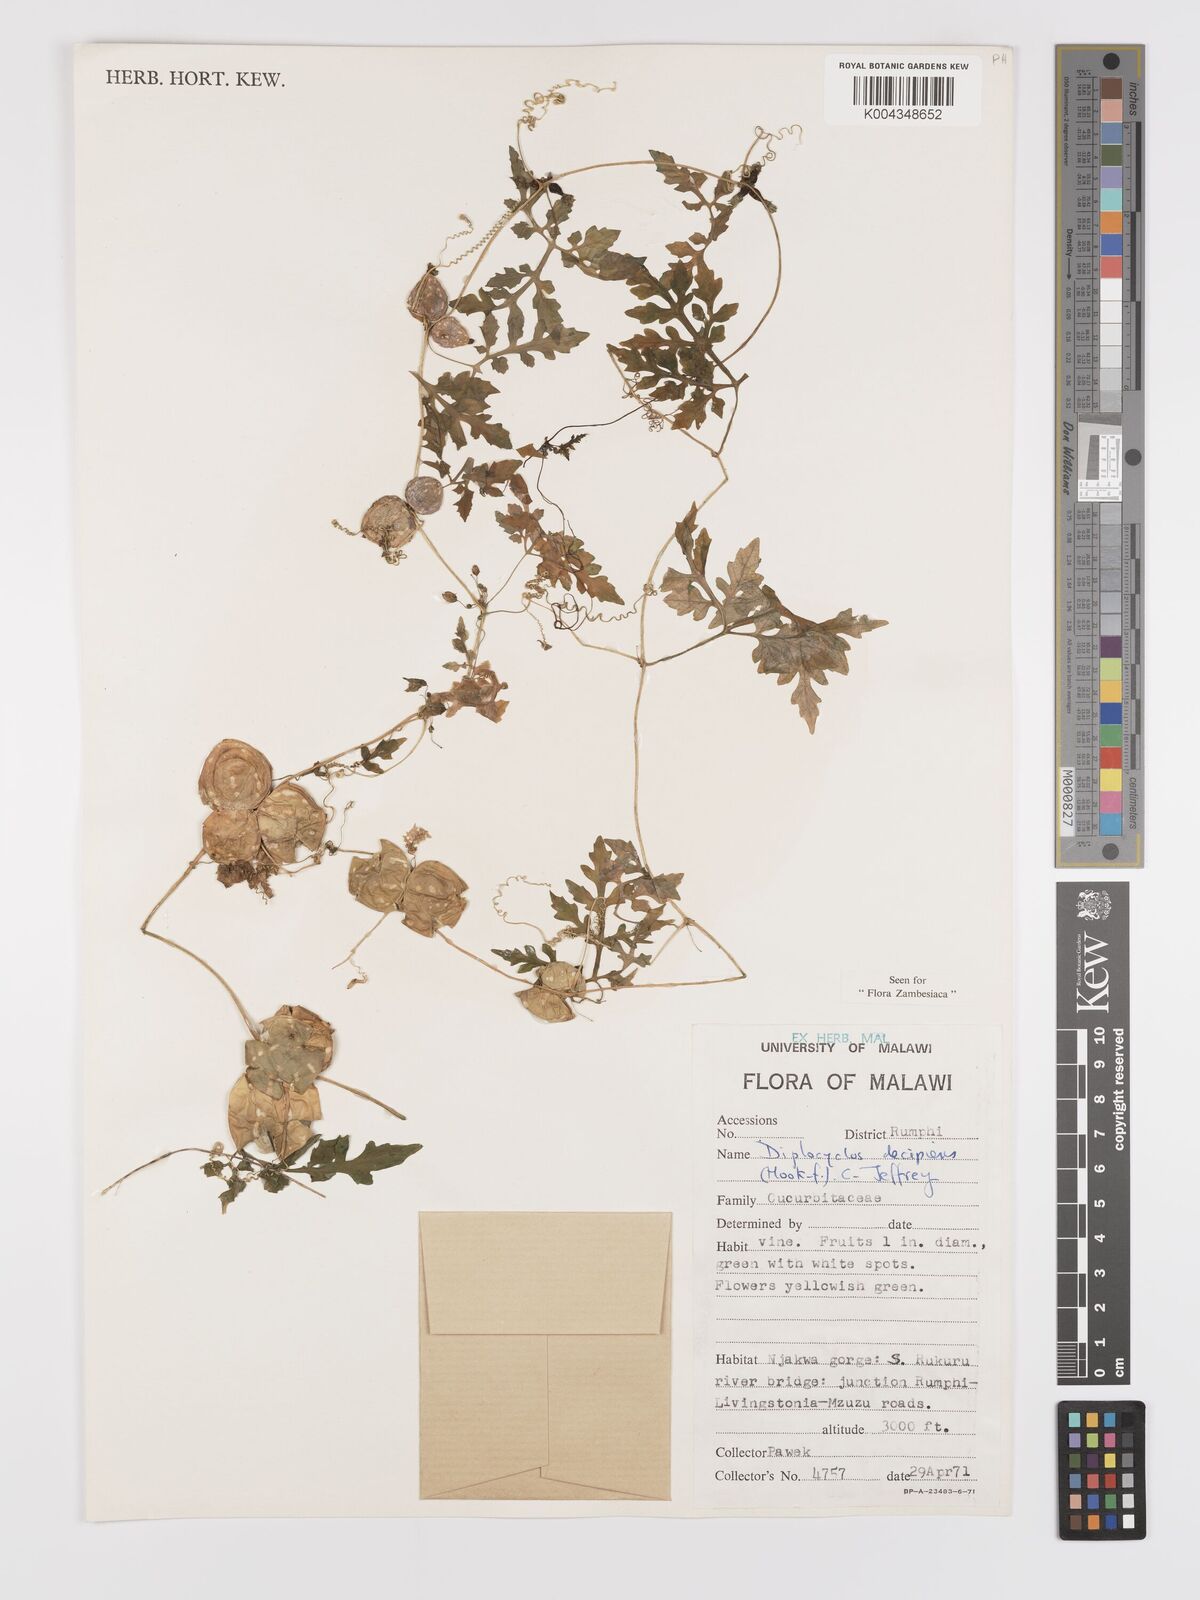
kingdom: Plantae
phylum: Tracheophyta
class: Magnoliopsida
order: Cucurbitales
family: Cucurbitaceae
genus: Diplocyclos
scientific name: Diplocyclos decipiens
